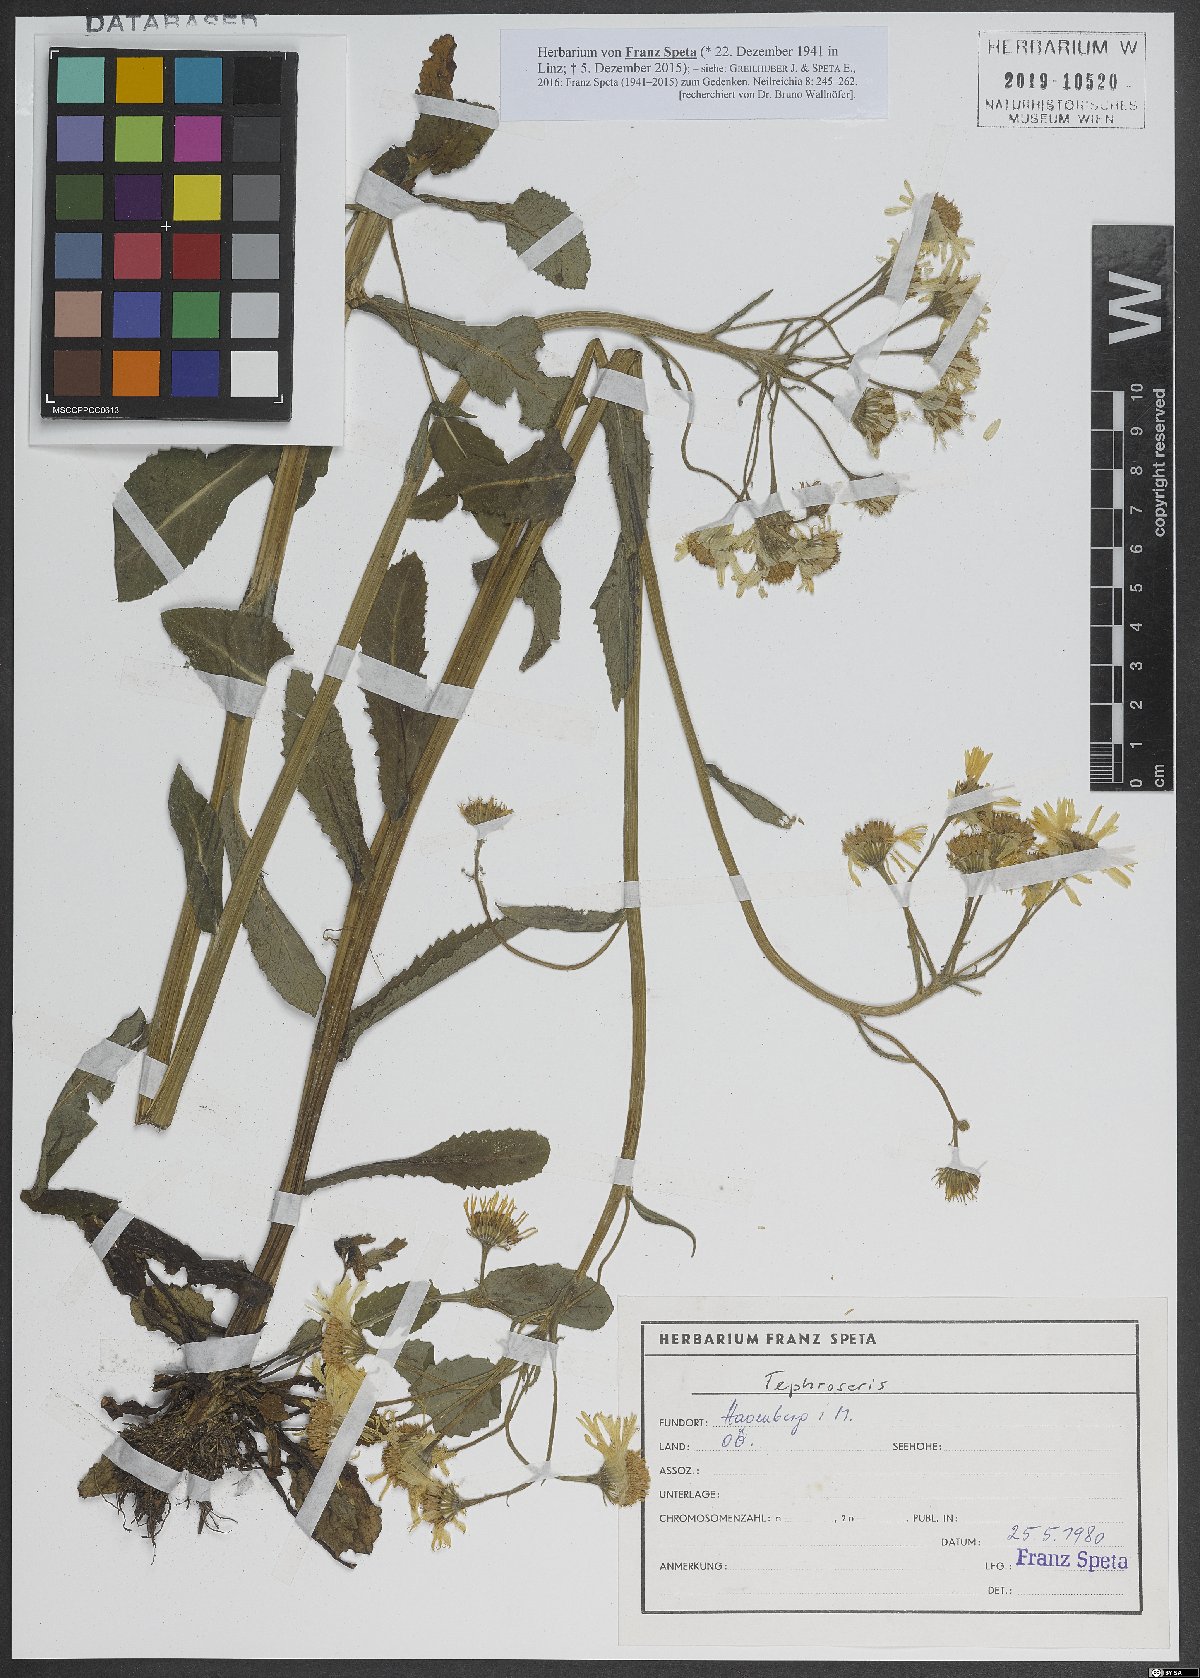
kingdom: Plantae
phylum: Tracheophyta
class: Magnoliopsida
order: Asterales
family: Asteraceae
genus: Tephroseris
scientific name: Tephroseris
